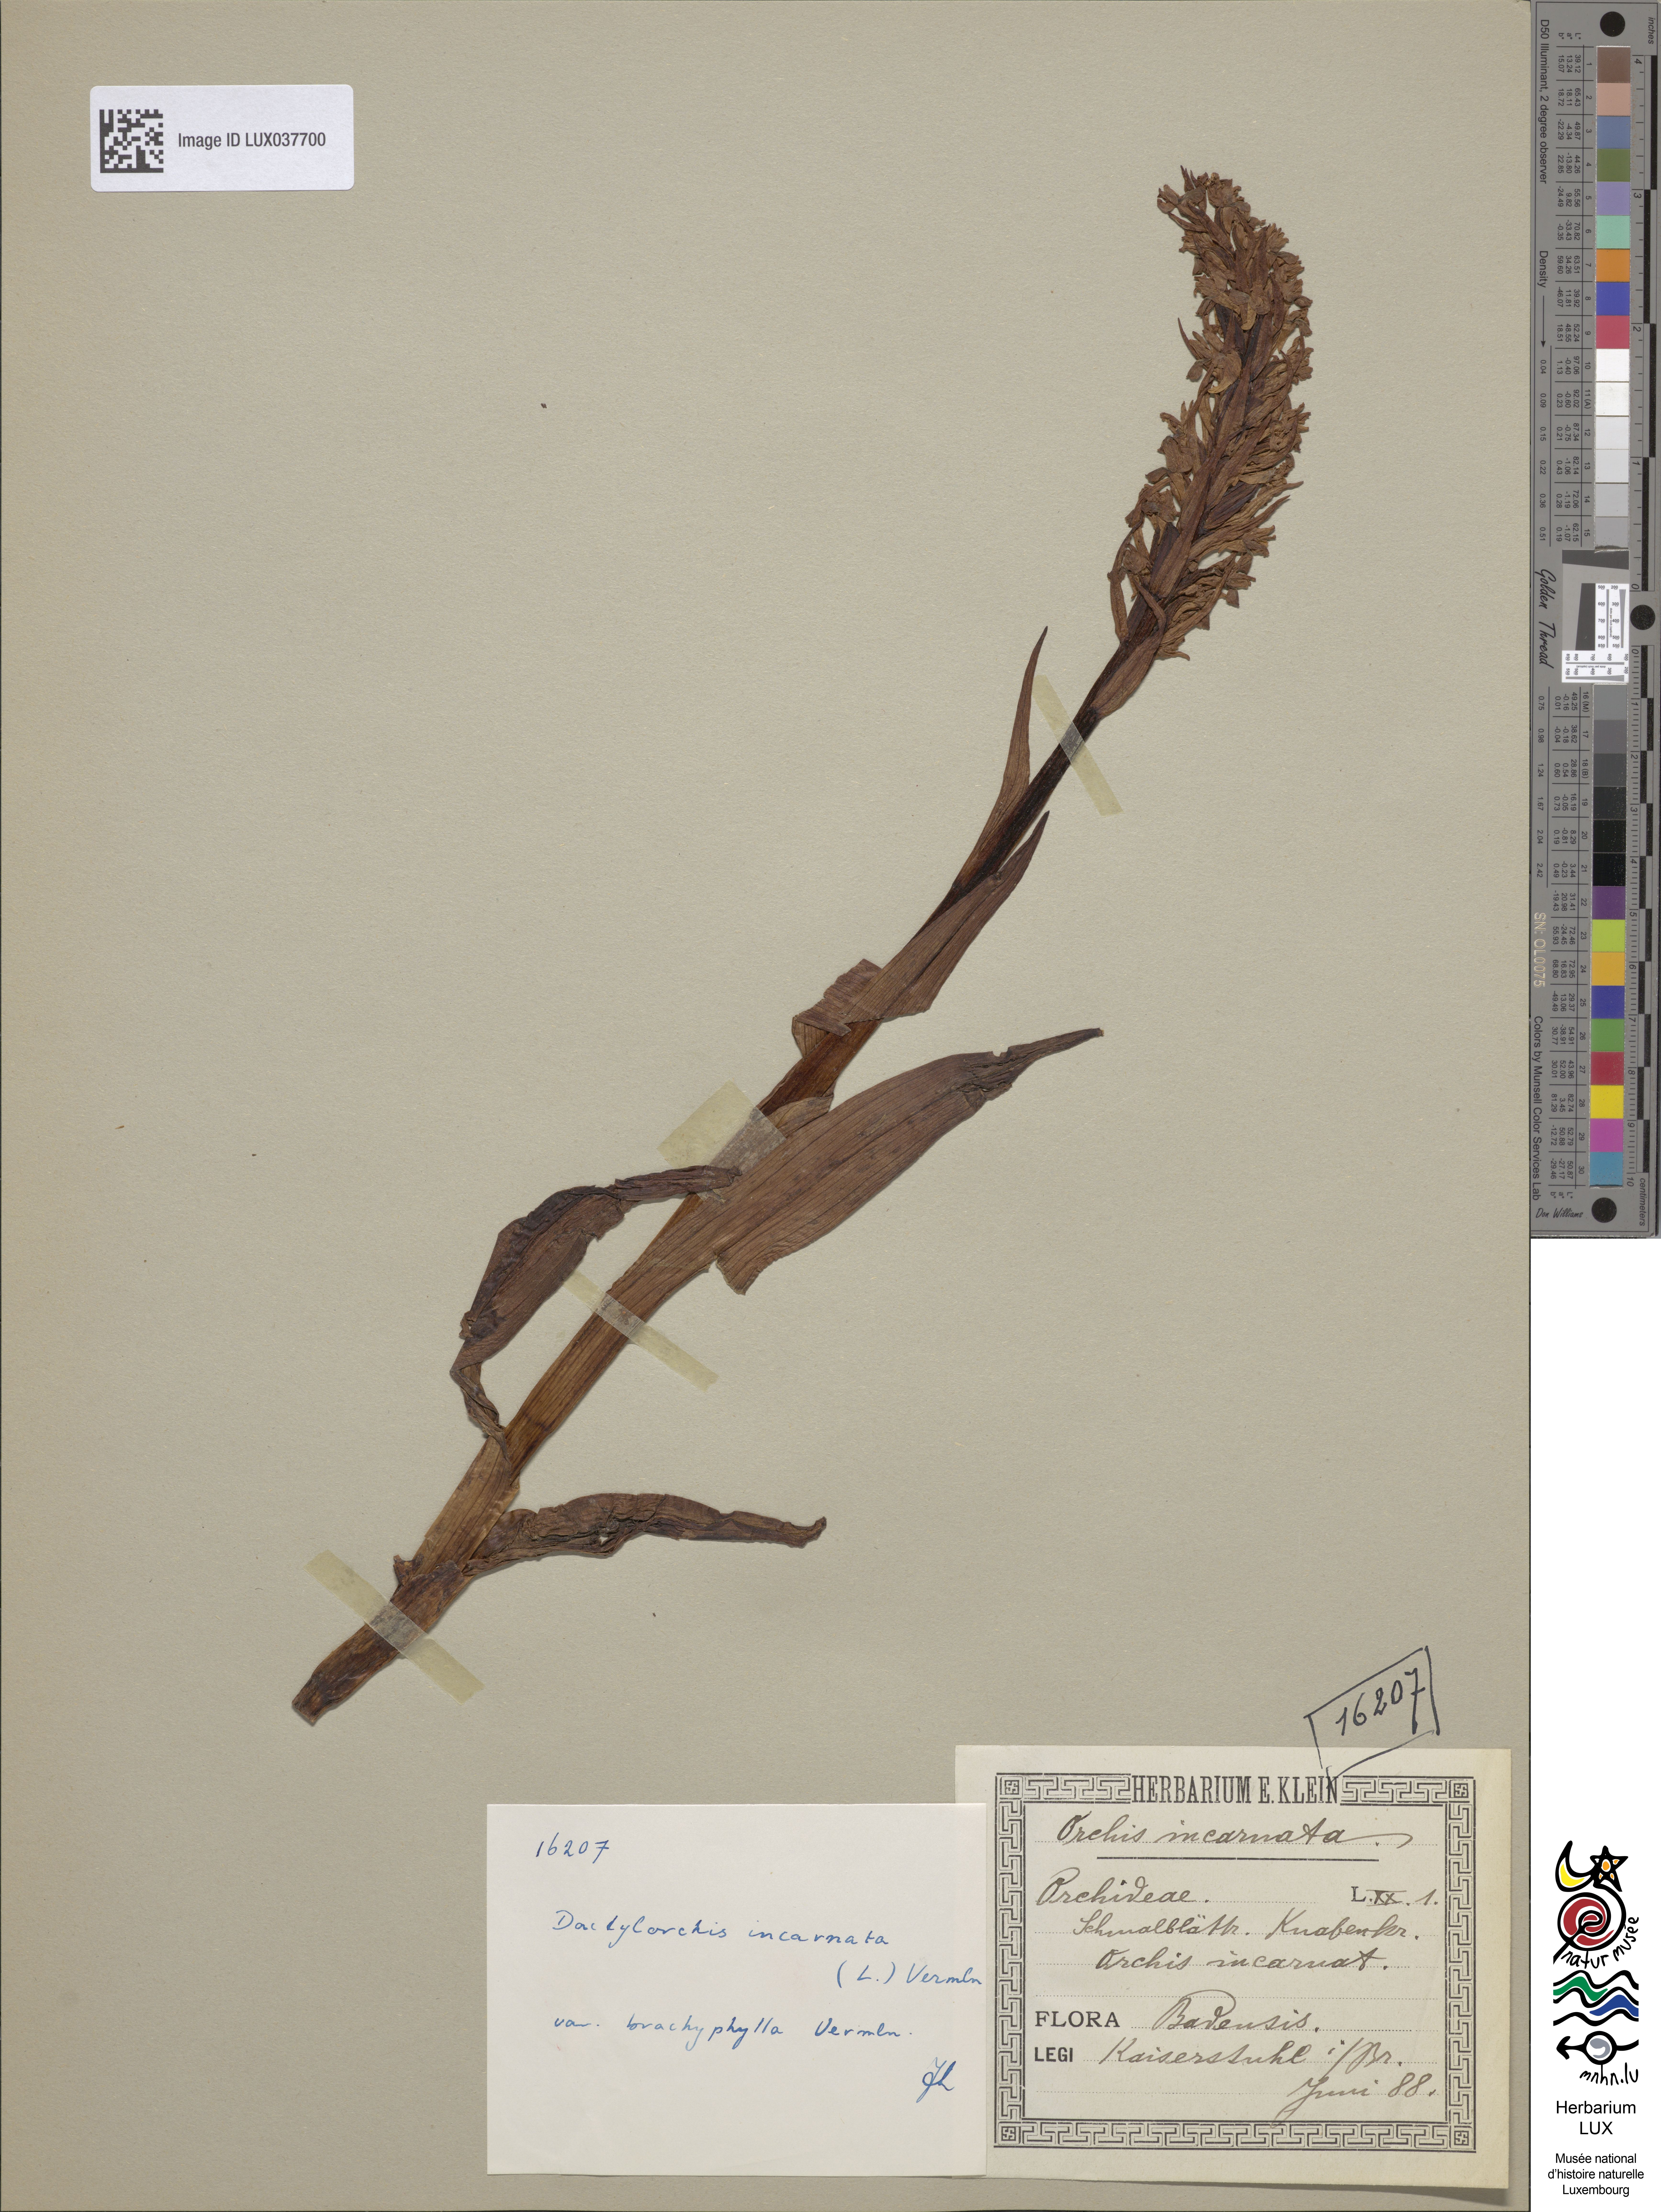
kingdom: Plantae
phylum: Tracheophyta
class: Liliopsida
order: Asparagales
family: Orchidaceae
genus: Dactylorhiza
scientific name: Dactylorhiza incarnata
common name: Early marsh-orchid
